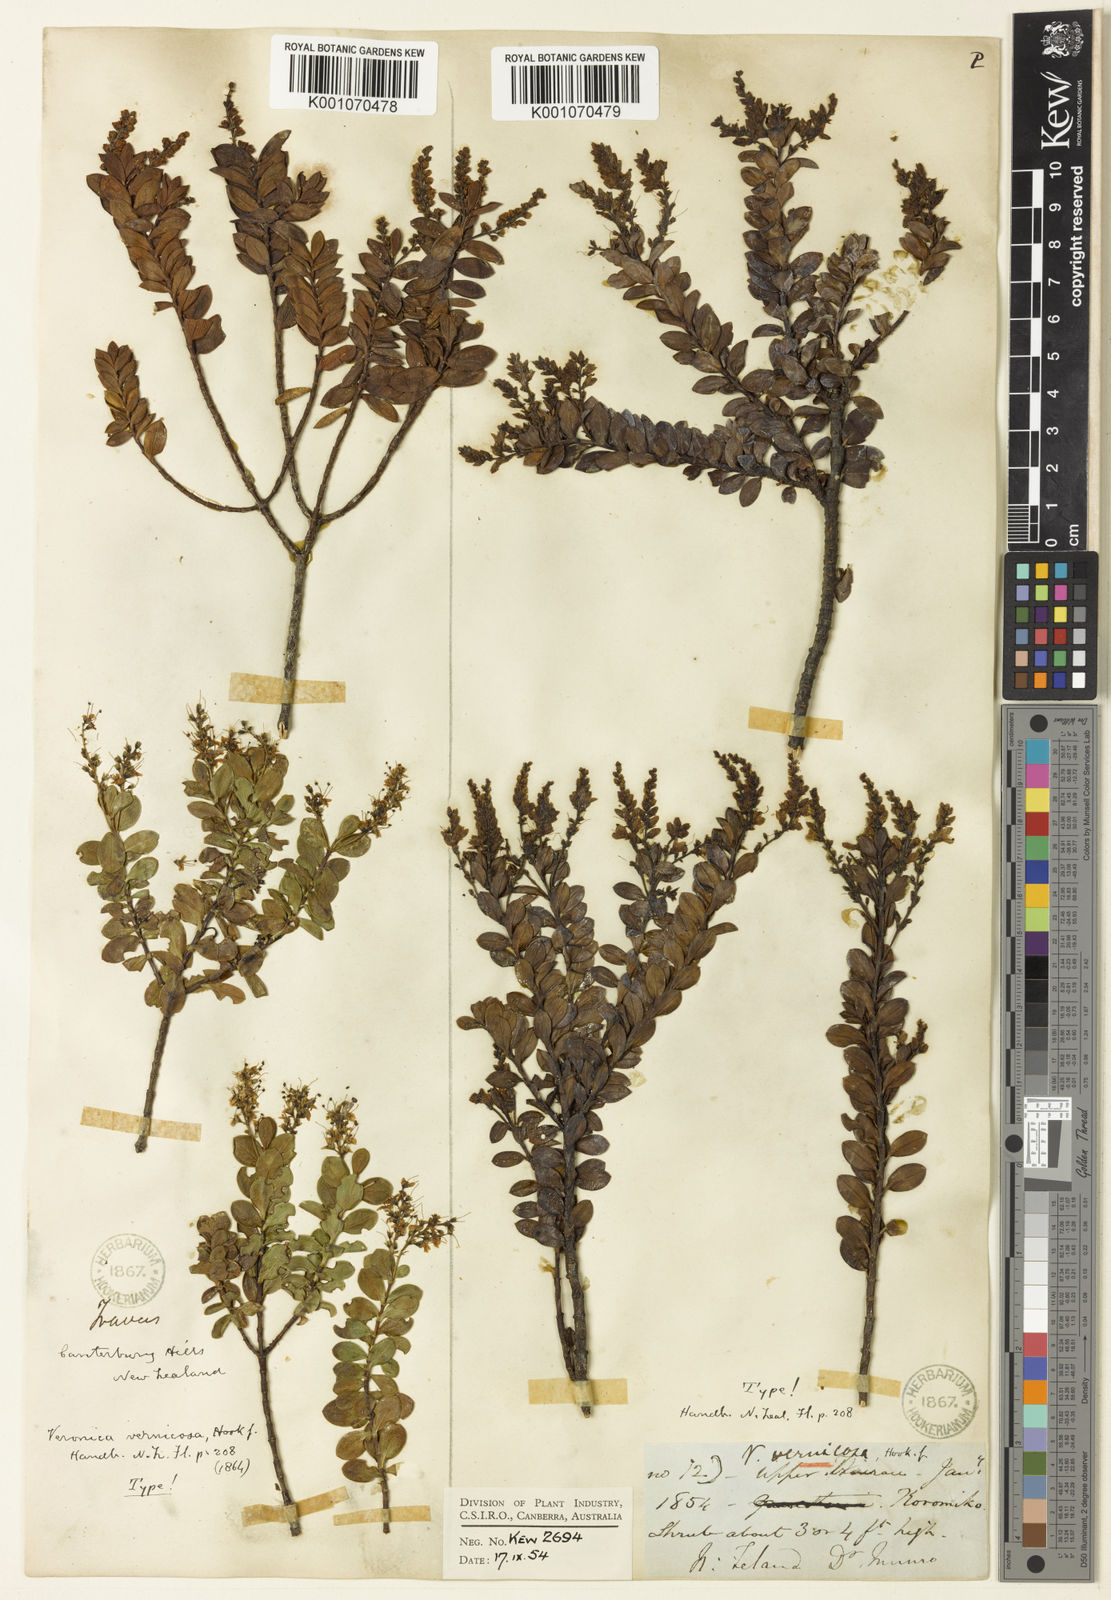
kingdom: Plantae
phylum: Tracheophyta
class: Magnoliopsida
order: Lamiales
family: Plantaginaceae
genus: Veronica
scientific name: Veronica vernicosa
